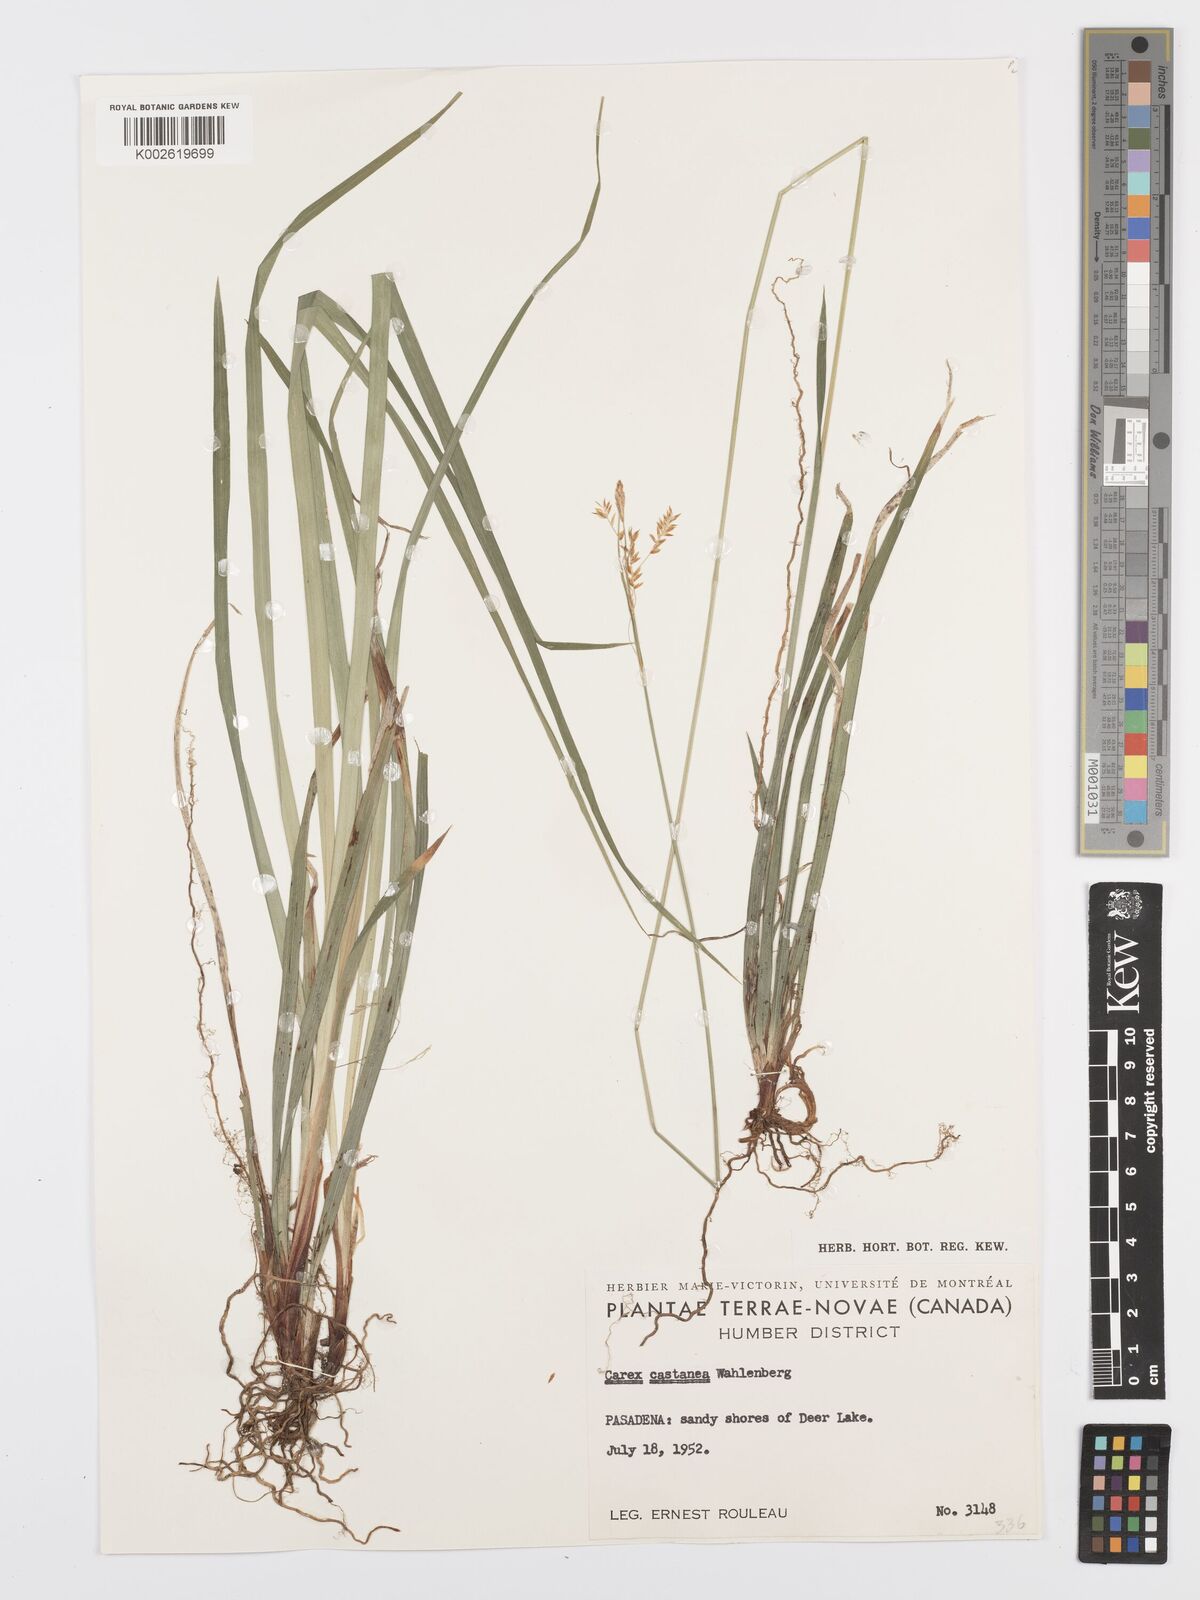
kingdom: Plantae
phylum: Tracheophyta
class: Liliopsida
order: Poales
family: Cyperaceae
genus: Carex
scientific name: Carex castanea
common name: Chestnut sedge
